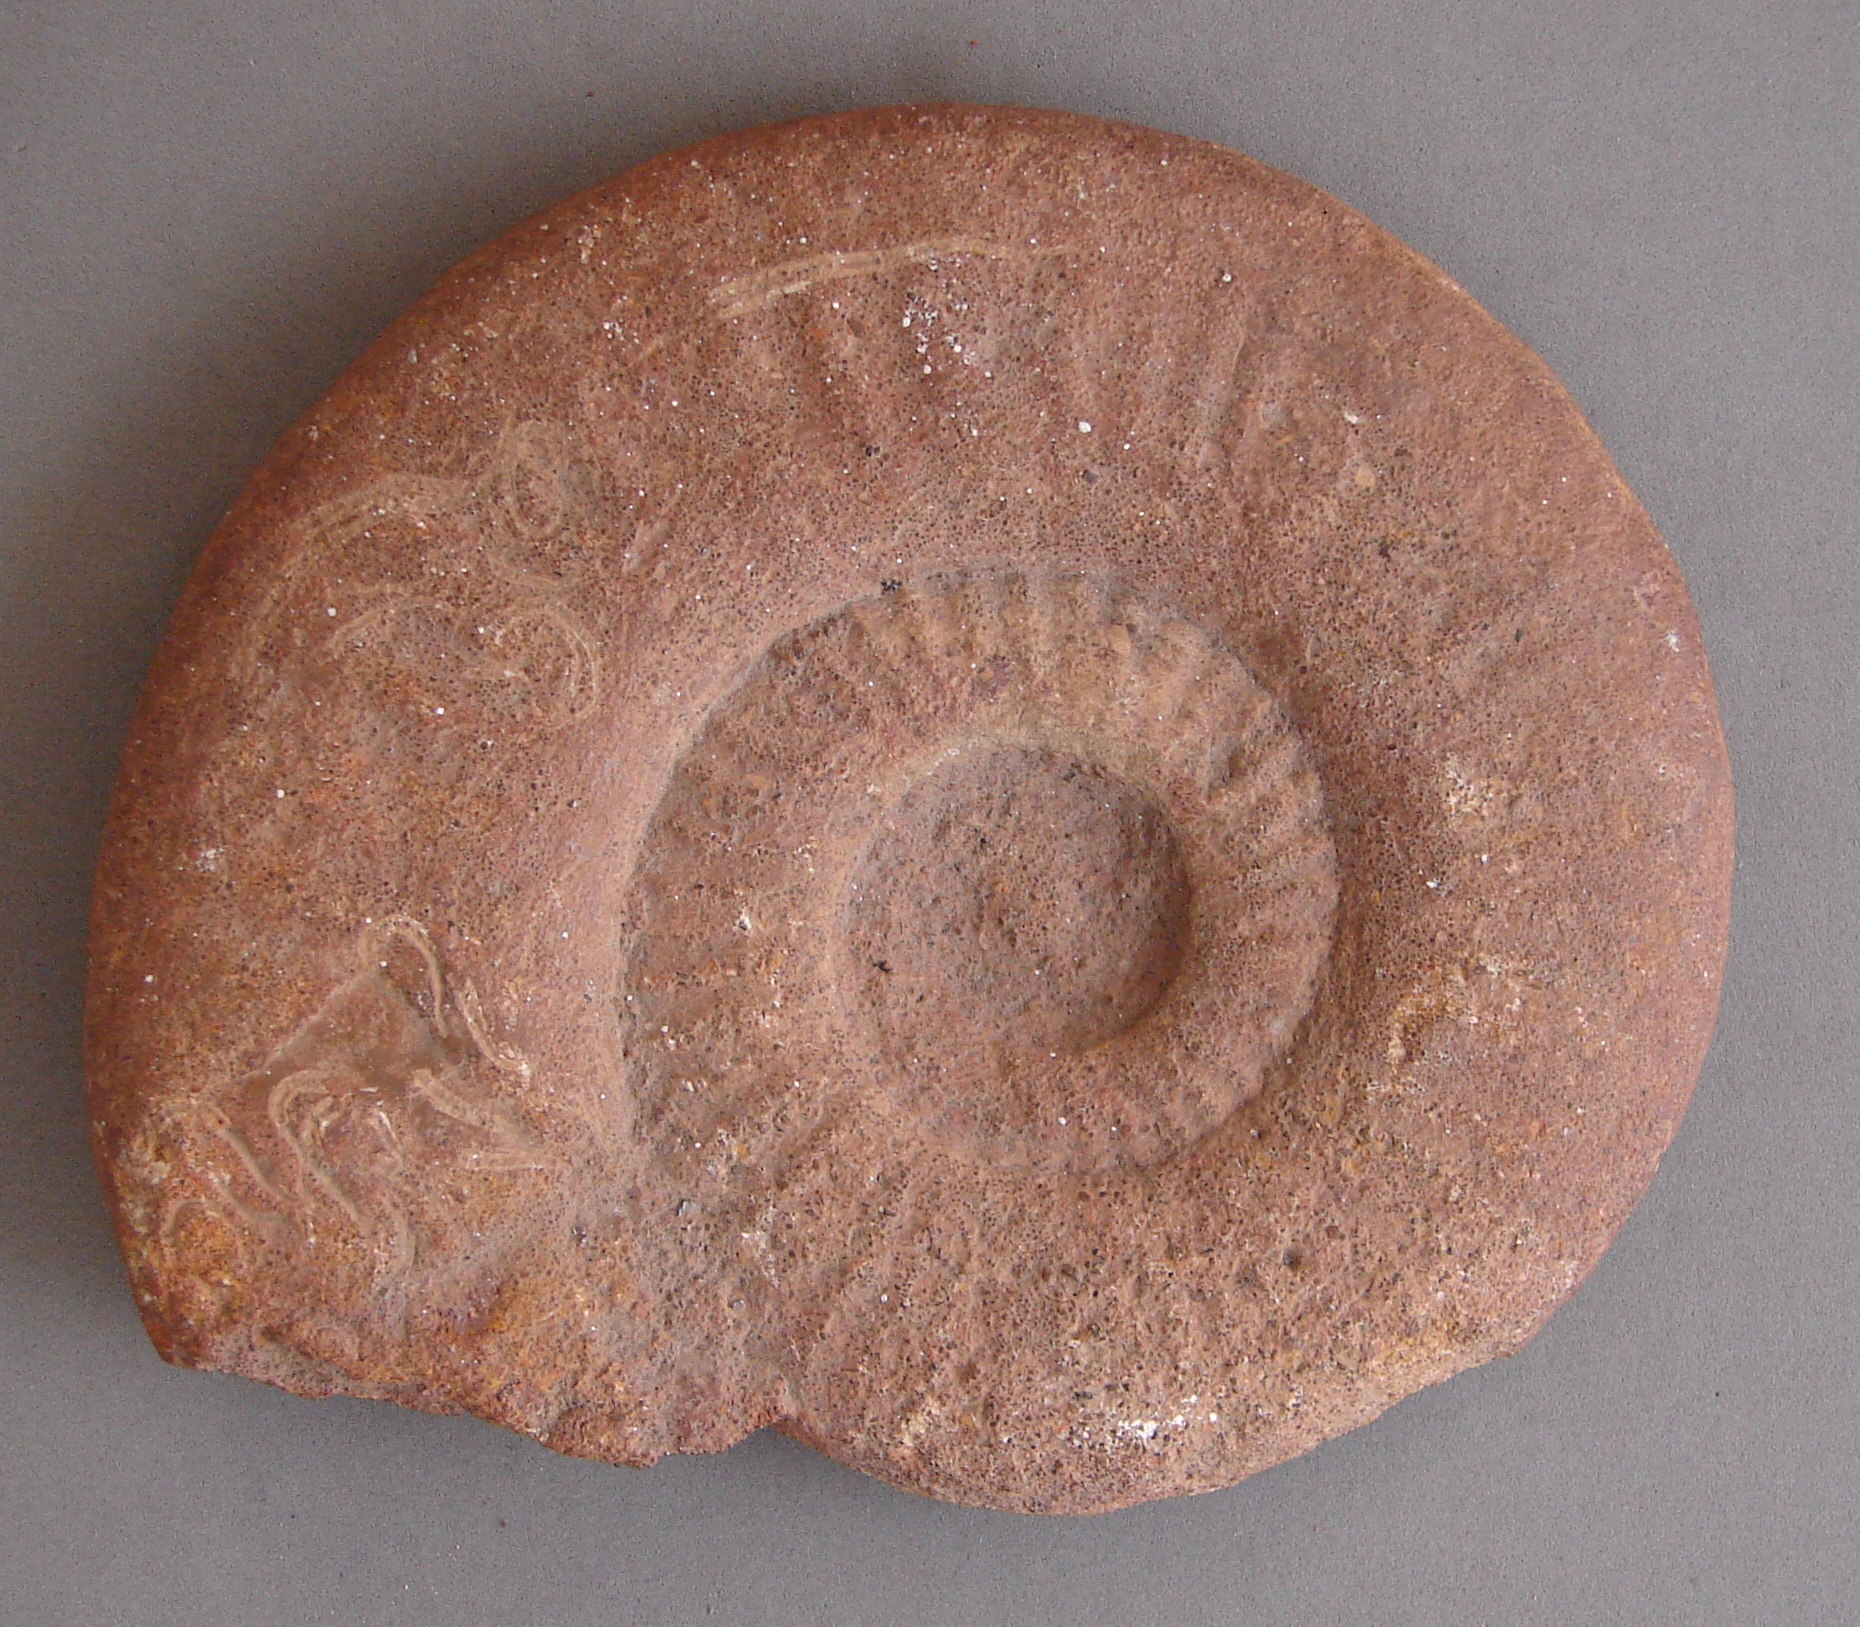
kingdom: Animalia
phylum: Mollusca
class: Cephalopoda
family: Hildoceratidae
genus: Dumortieria
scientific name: Dumortieria kochi
